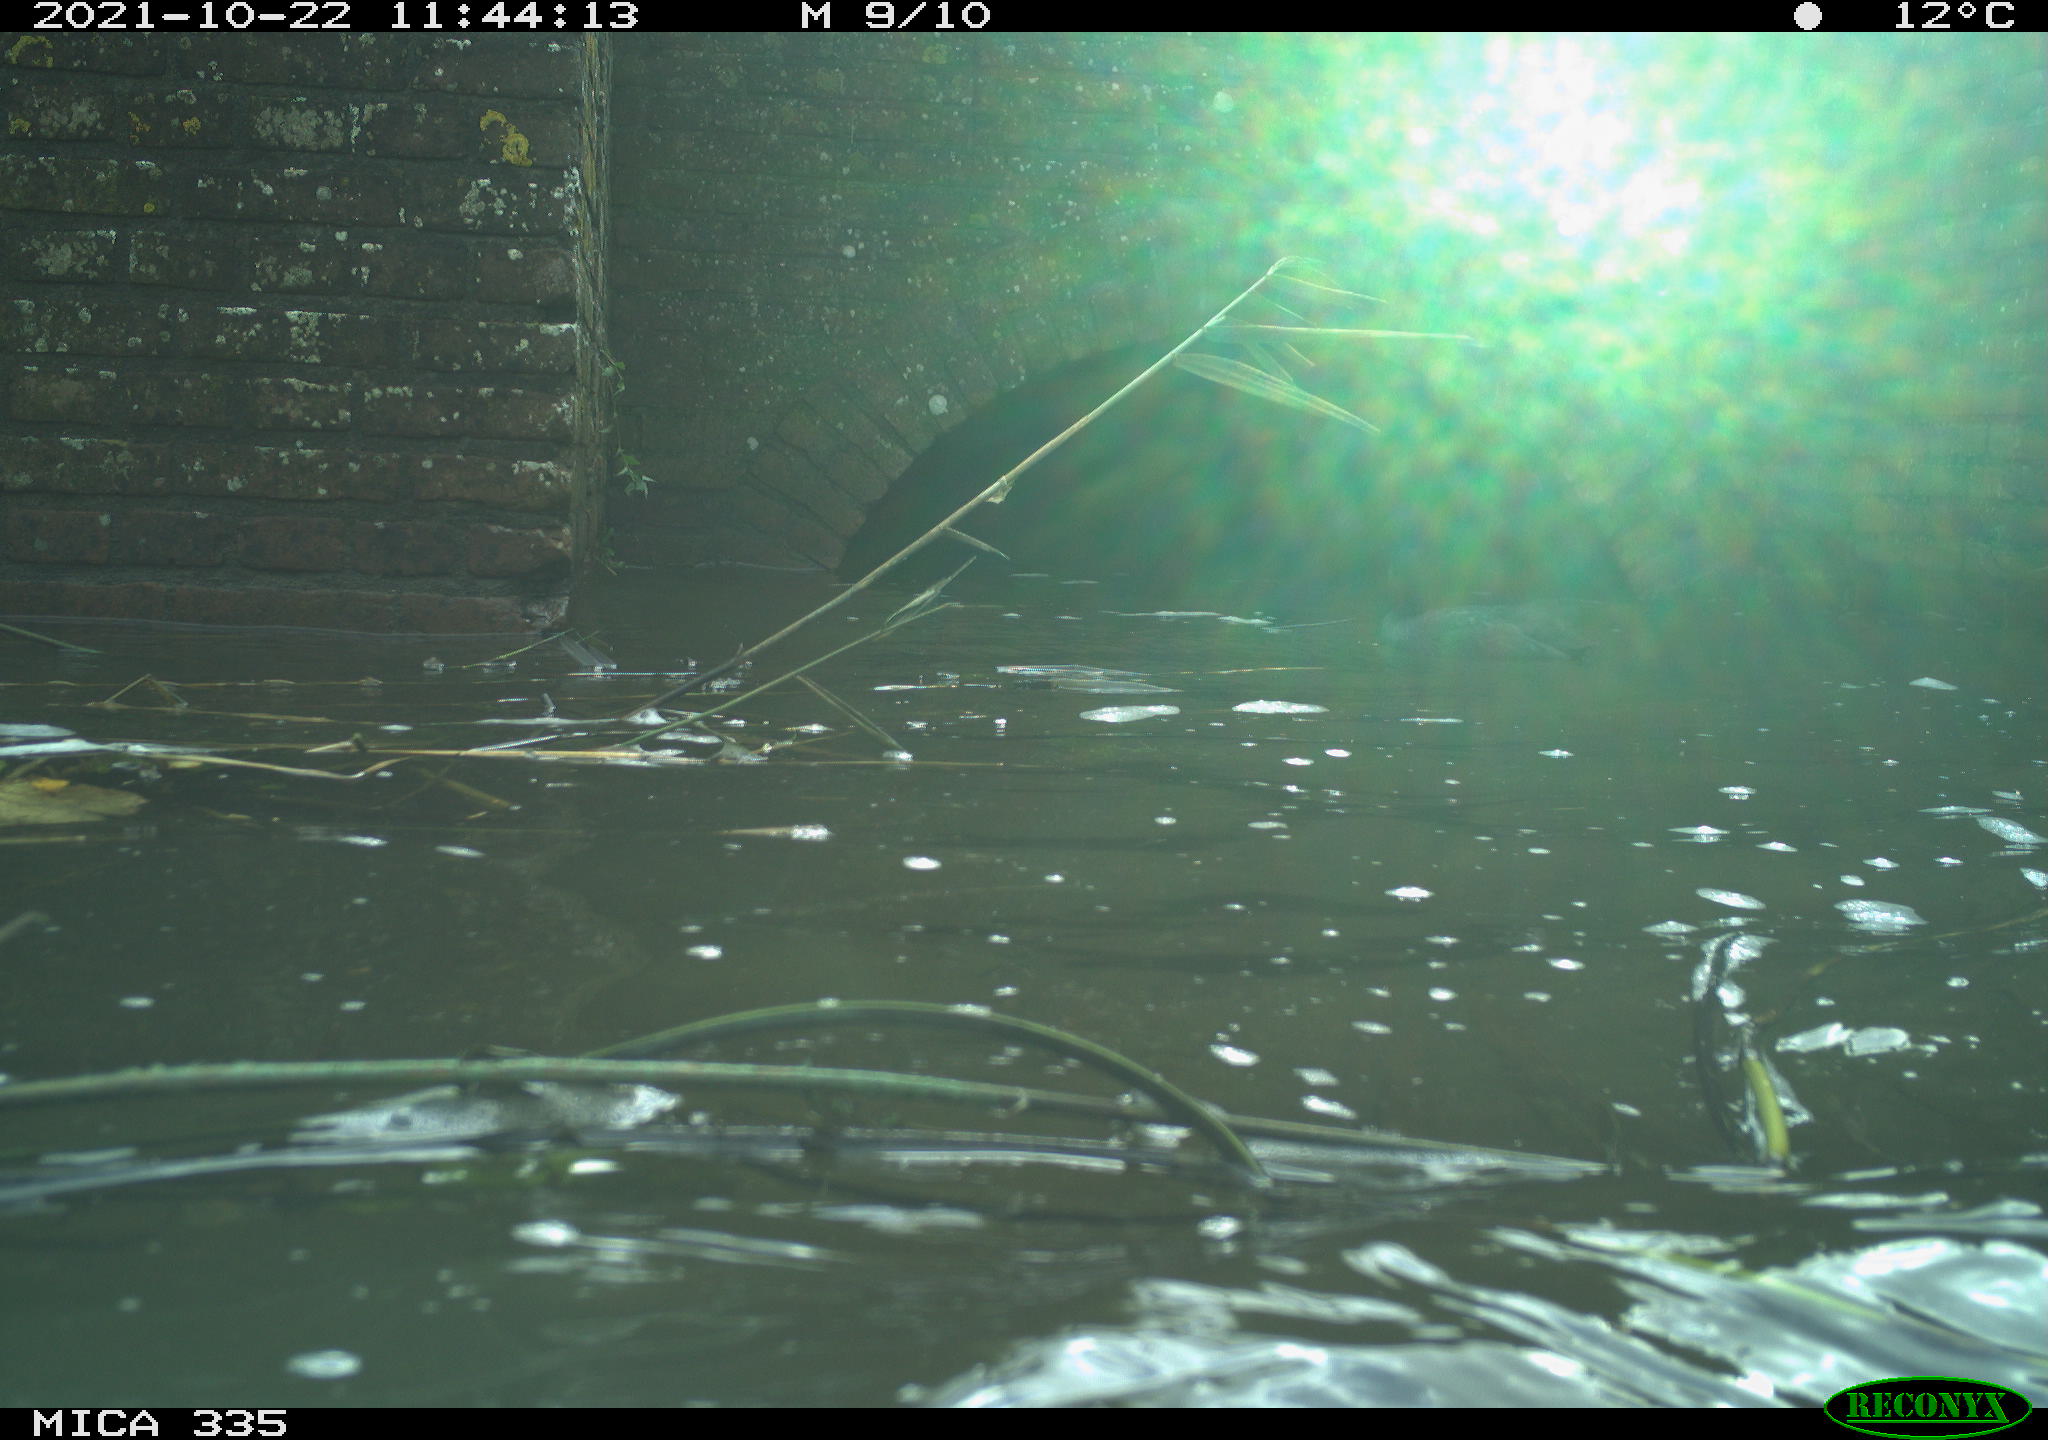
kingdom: Animalia
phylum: Chordata
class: Aves
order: Gruiformes
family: Rallidae
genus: Fulica
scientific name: Fulica atra
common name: Eurasian coot
